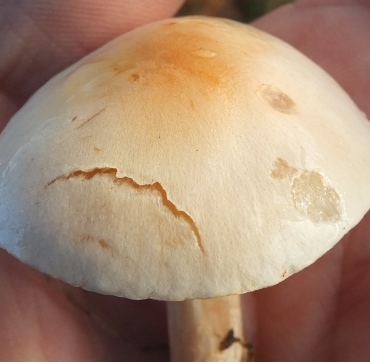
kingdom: Fungi
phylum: Basidiomycota
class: Agaricomycetes
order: Agaricales
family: Hygrophoraceae
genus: Hygrophorus
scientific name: Hygrophorus unicolor
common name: orangeøjet sneglehat
